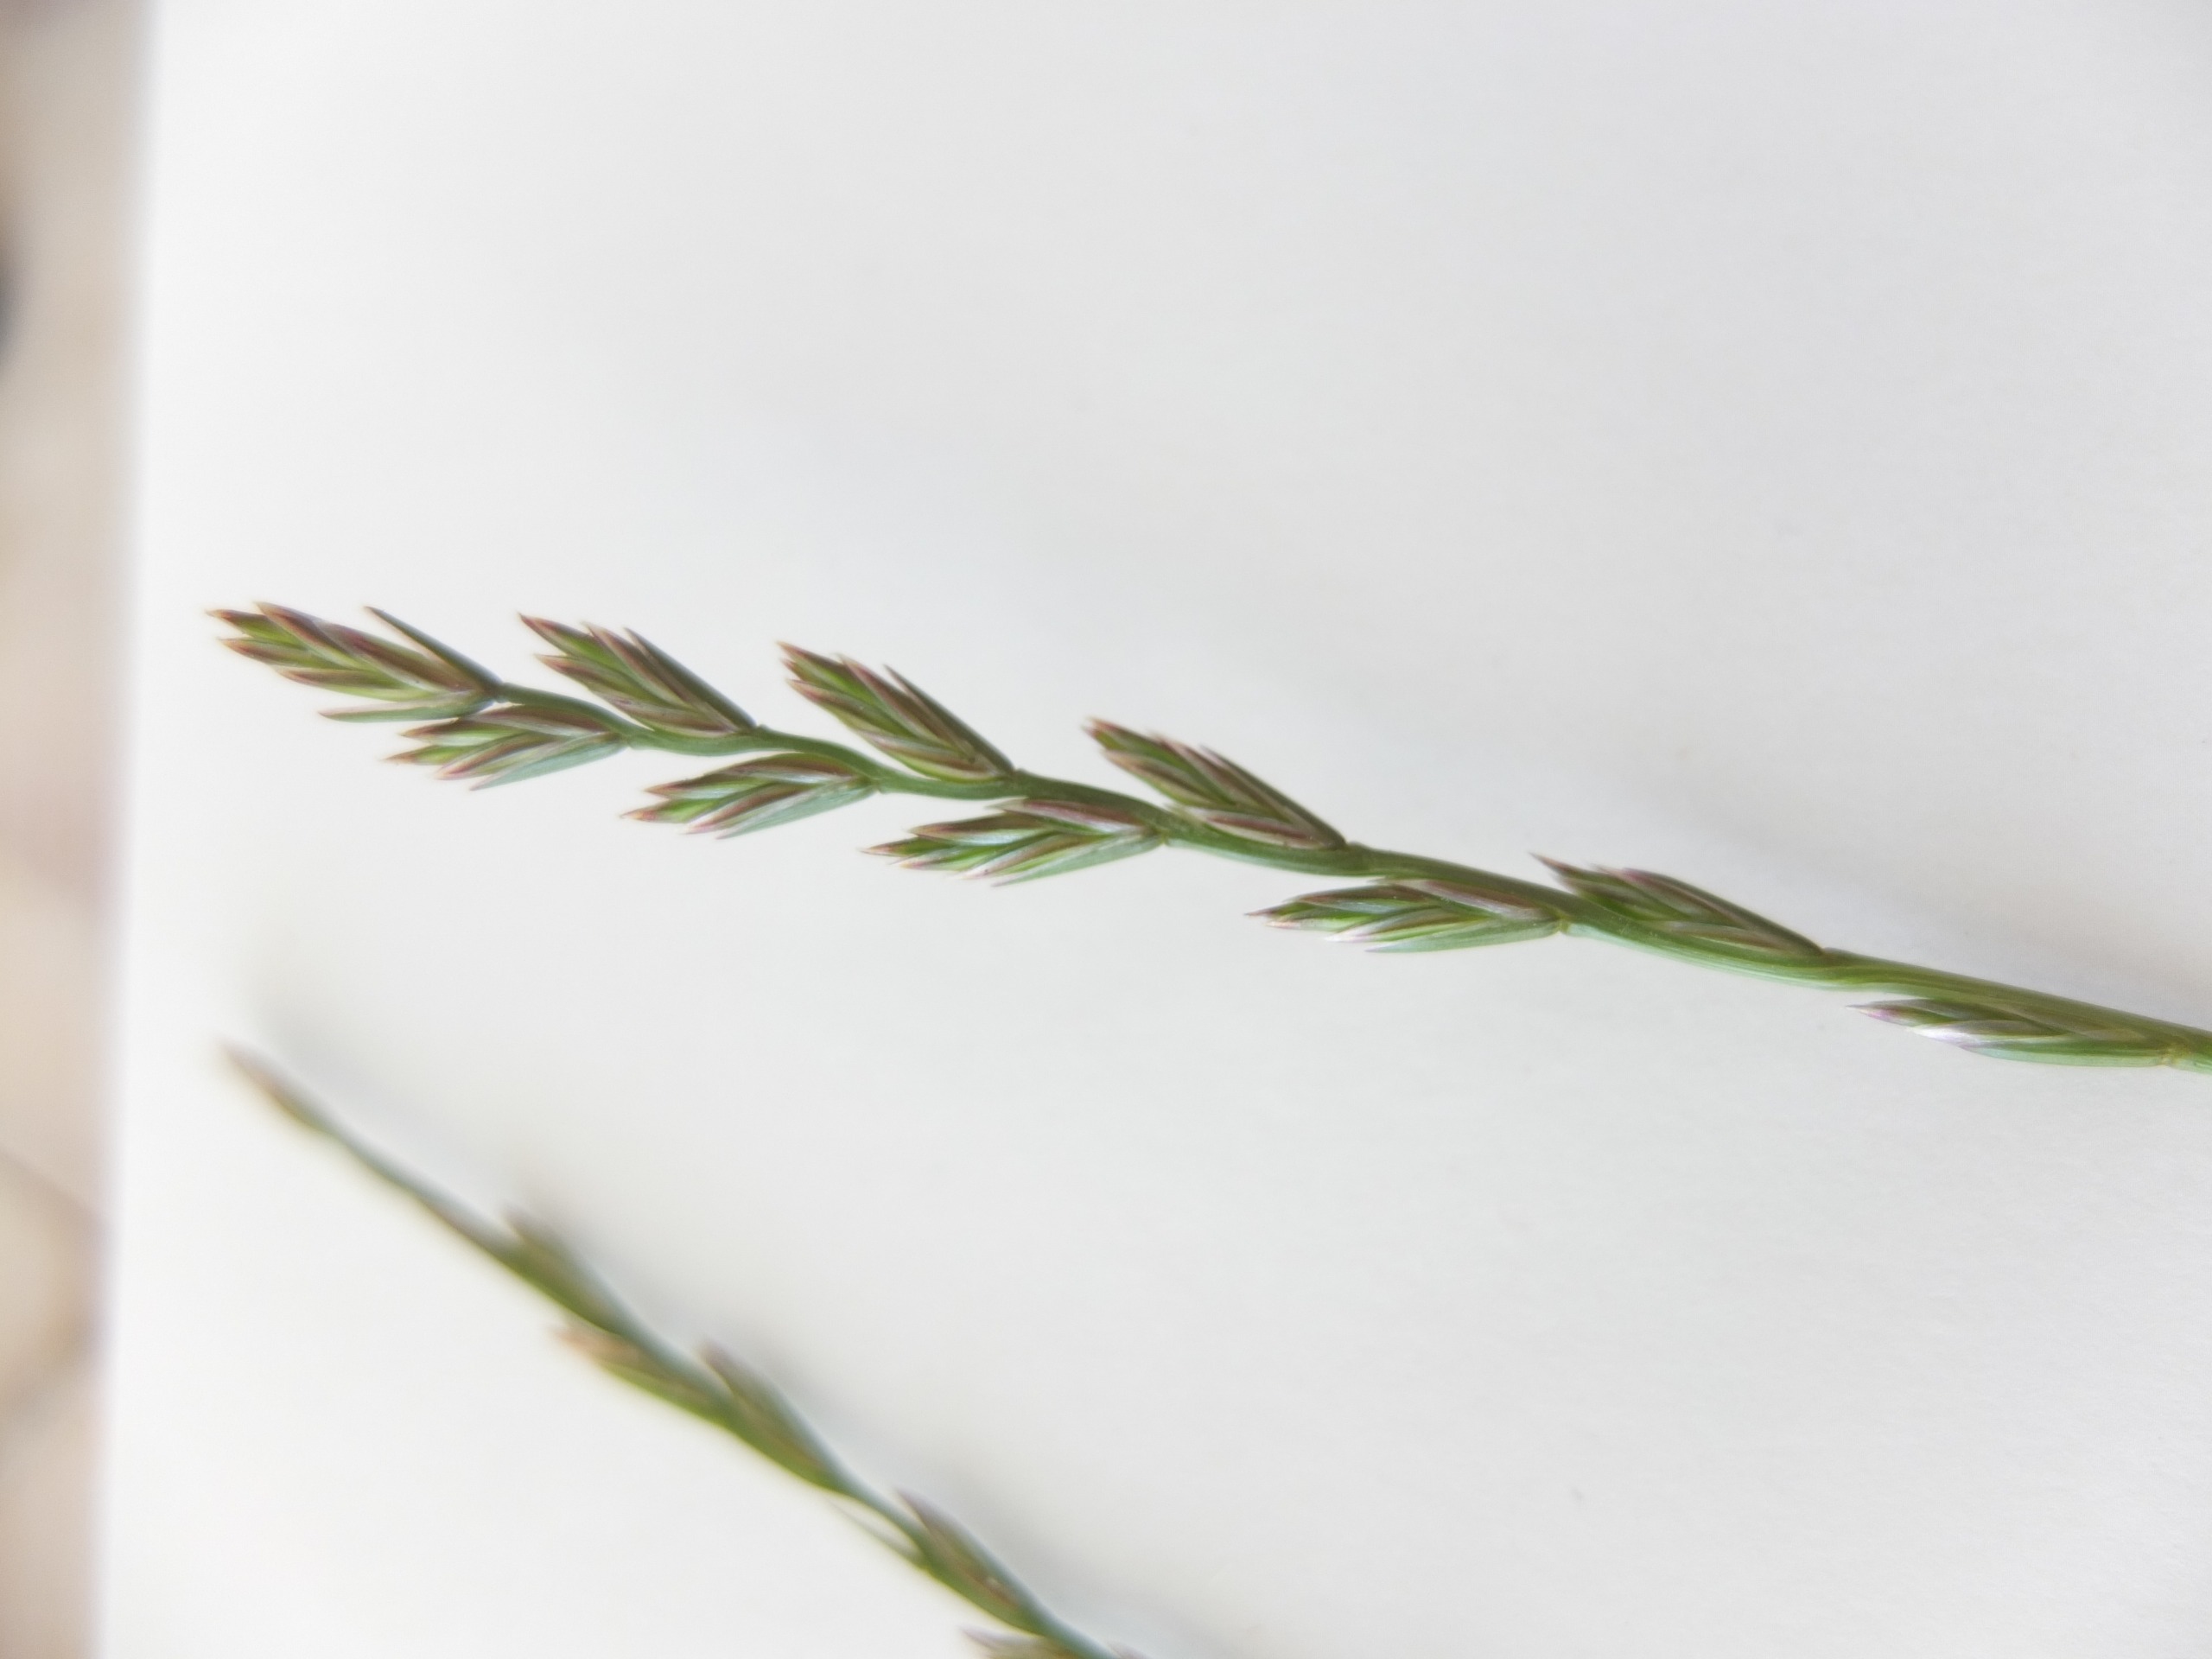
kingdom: Plantae
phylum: Tracheophyta
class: Liliopsida
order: Poales
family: Poaceae
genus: Lolium
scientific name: Lolium perenne
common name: Almindelig rajgræs
